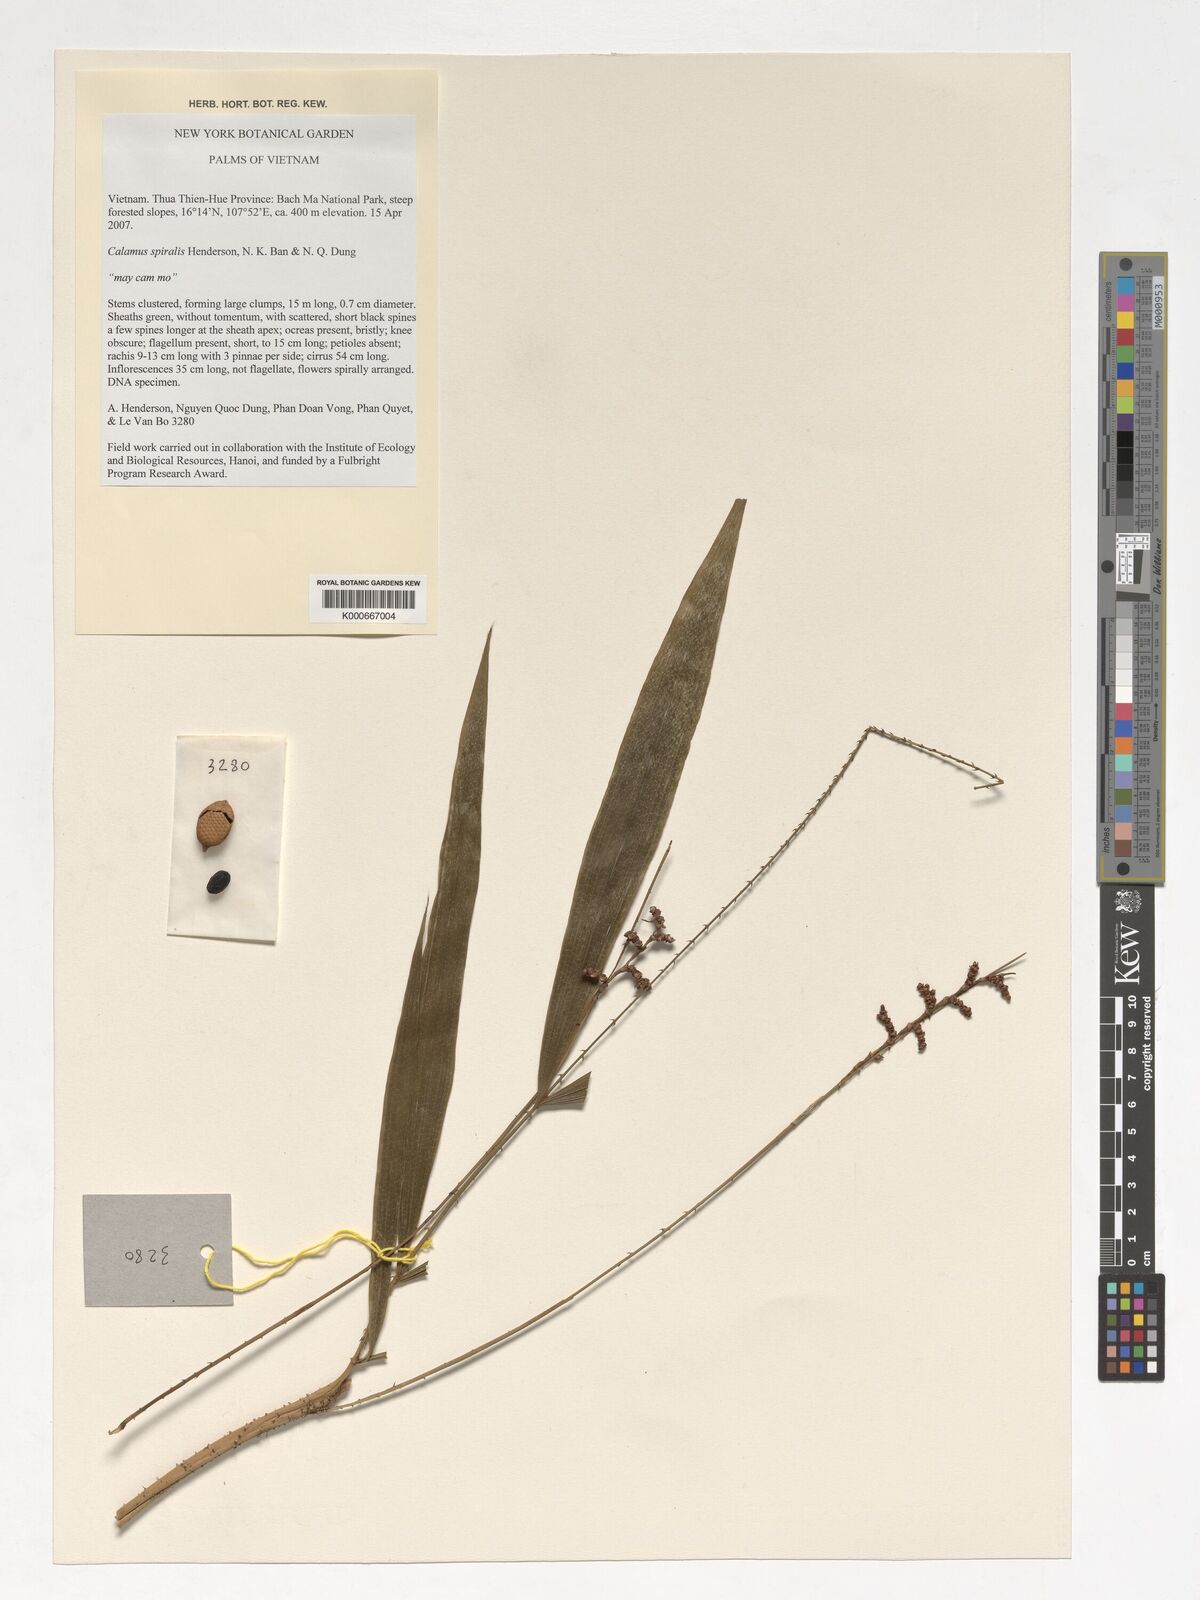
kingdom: Plantae
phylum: Tracheophyta
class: Liliopsida
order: Arecales
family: Arecaceae
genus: Calamus
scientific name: Calamus spiralis
